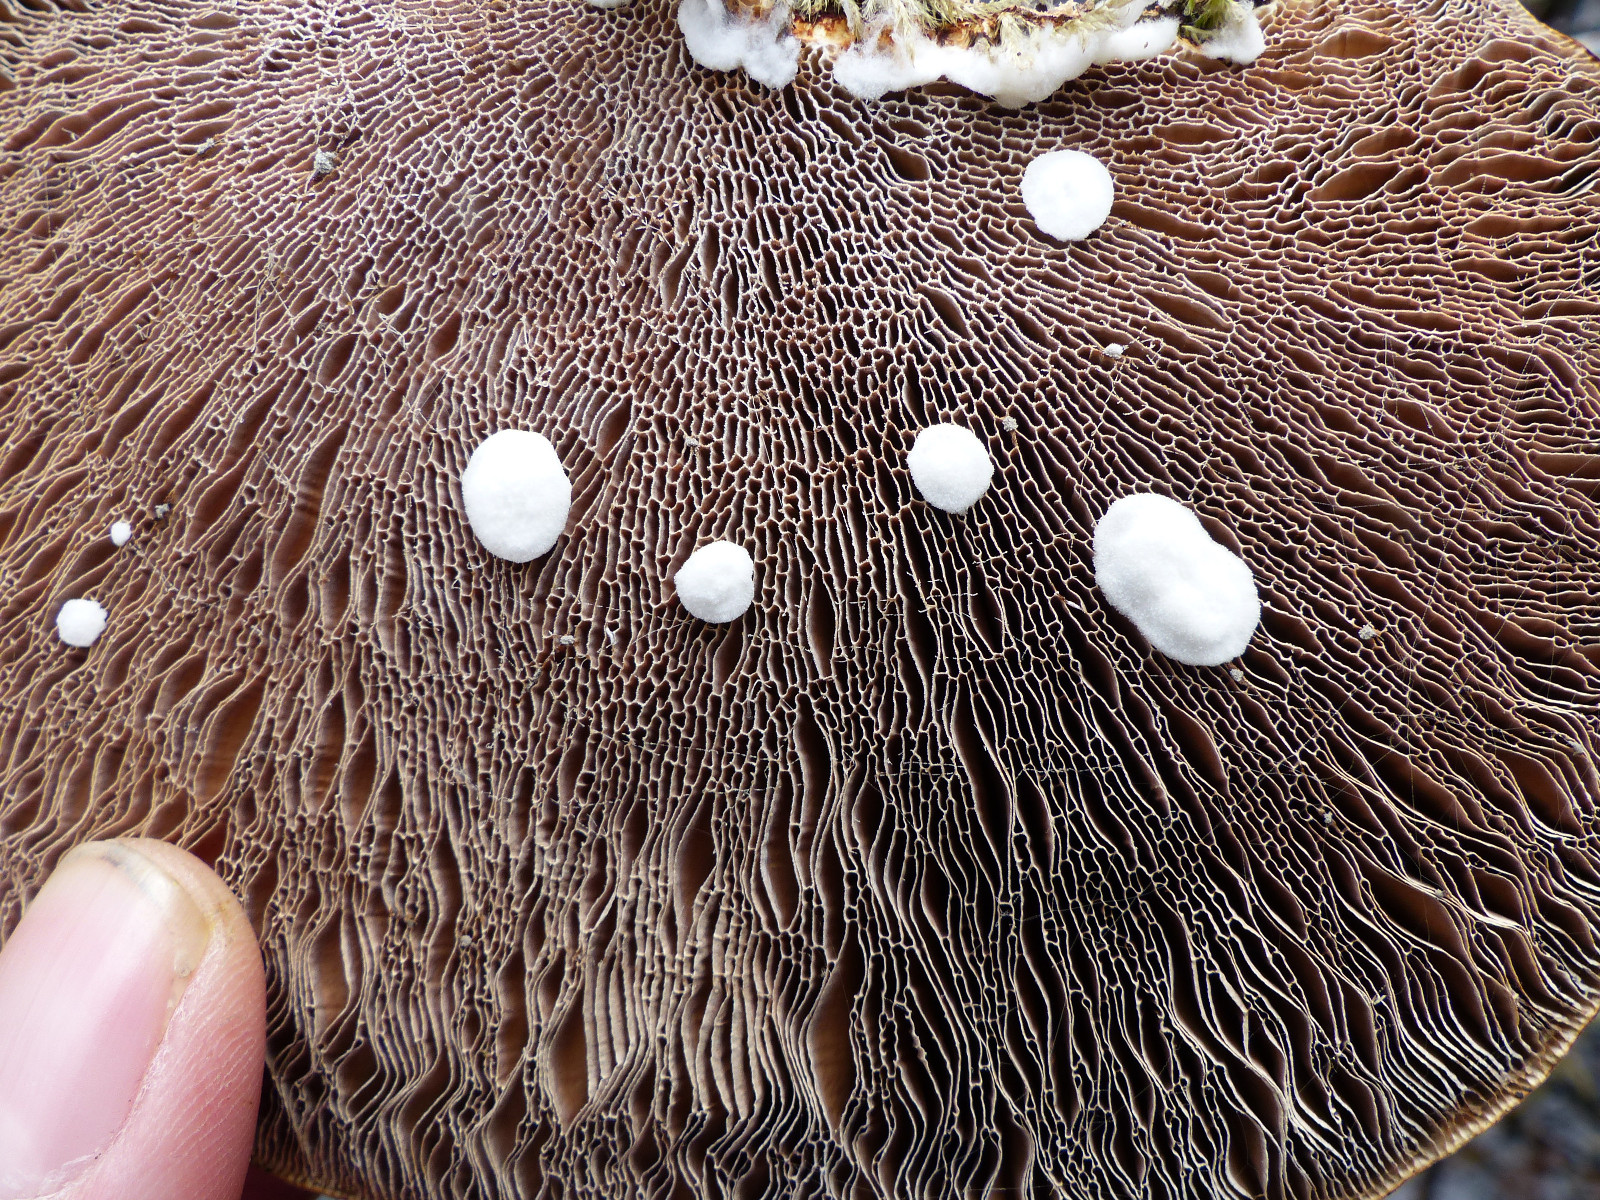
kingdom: Fungi
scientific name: Fungi
